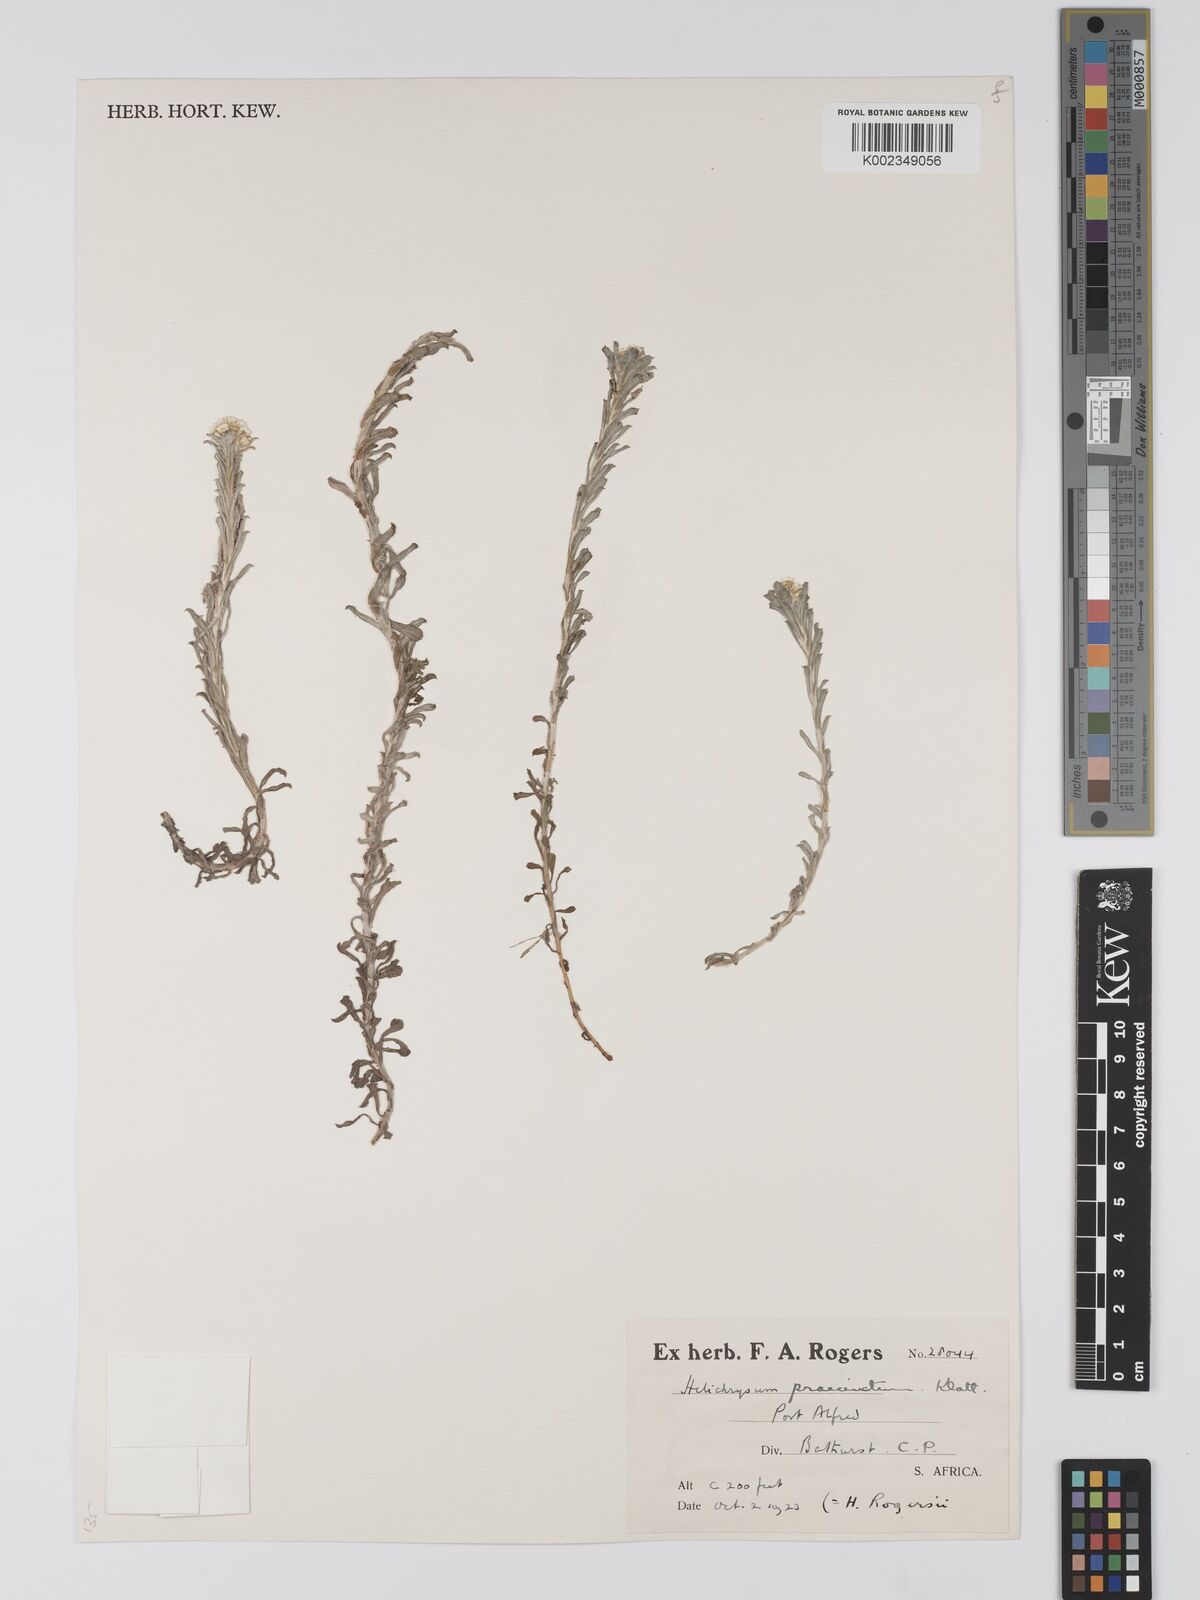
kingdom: Plantae
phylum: Tracheophyta
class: Magnoliopsida
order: Asterales
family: Asteraceae
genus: Helichrysum
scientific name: Helichrysum praecinctum
